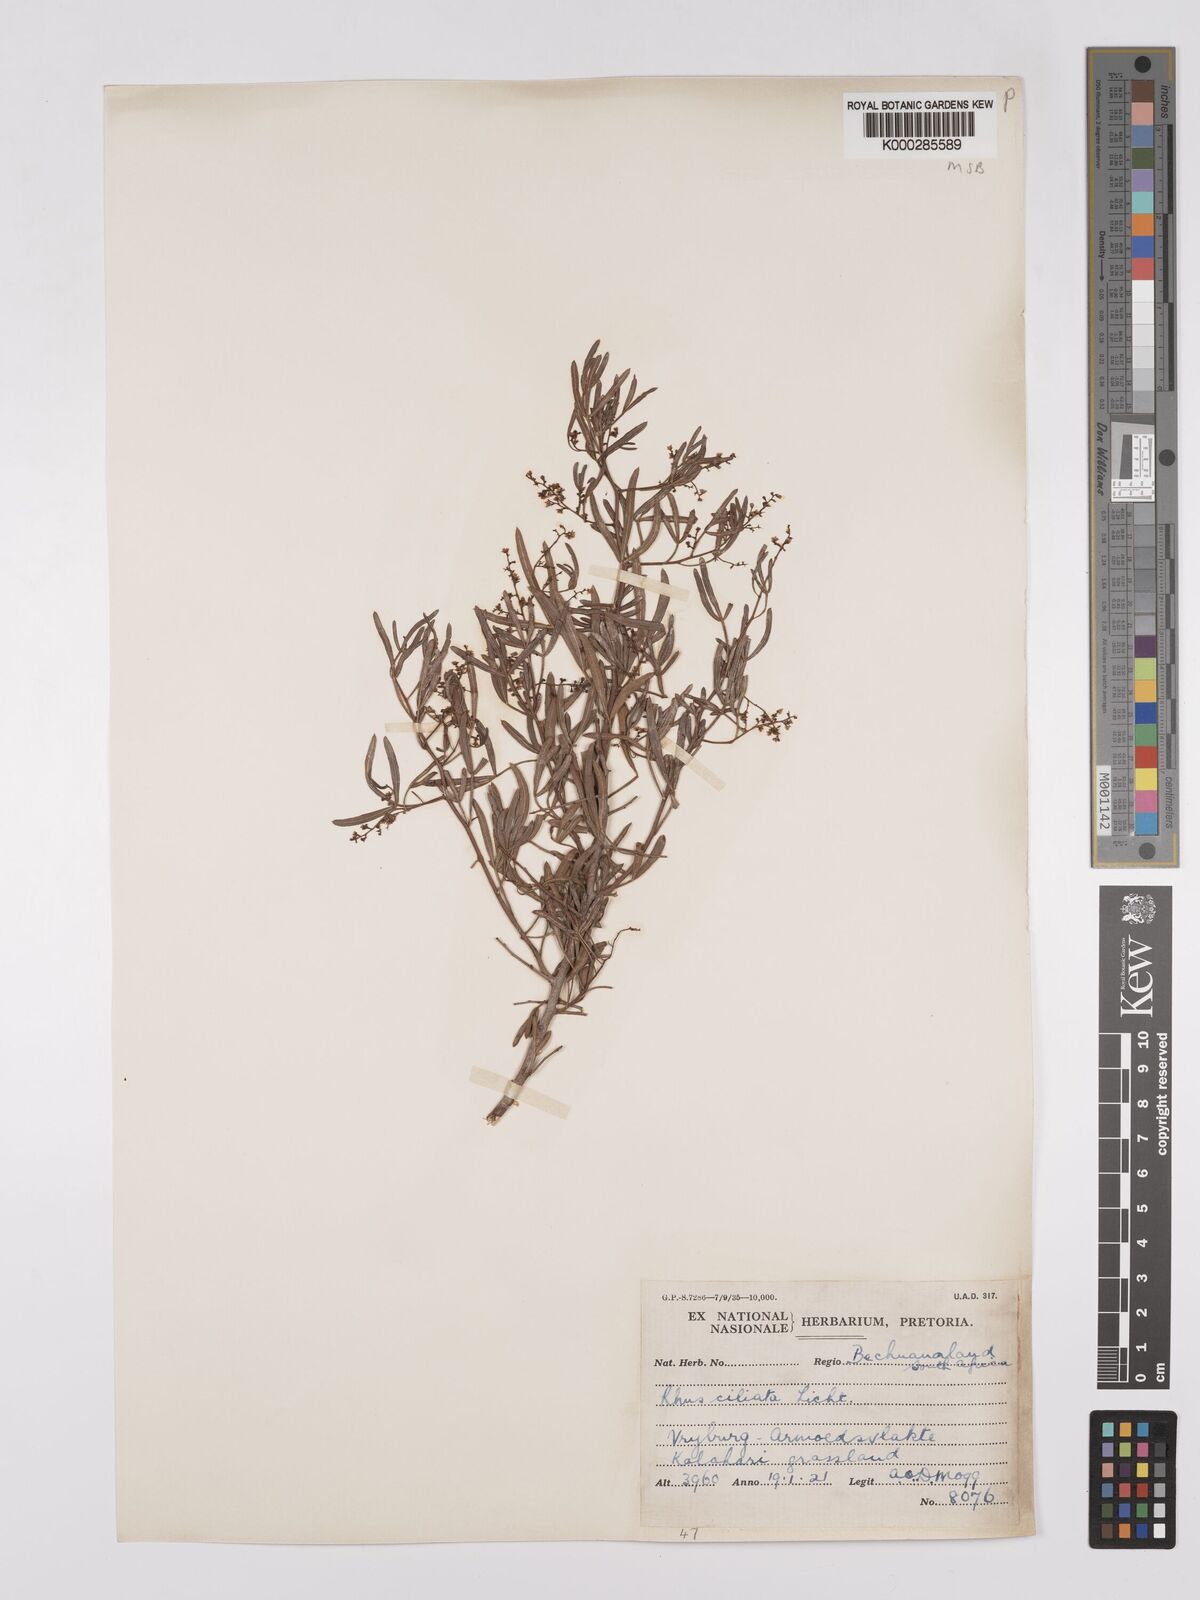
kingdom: Plantae
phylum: Tracheophyta
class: Magnoliopsida
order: Sapindales
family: Anacardiaceae
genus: Searsia
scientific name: Searsia ciliata
